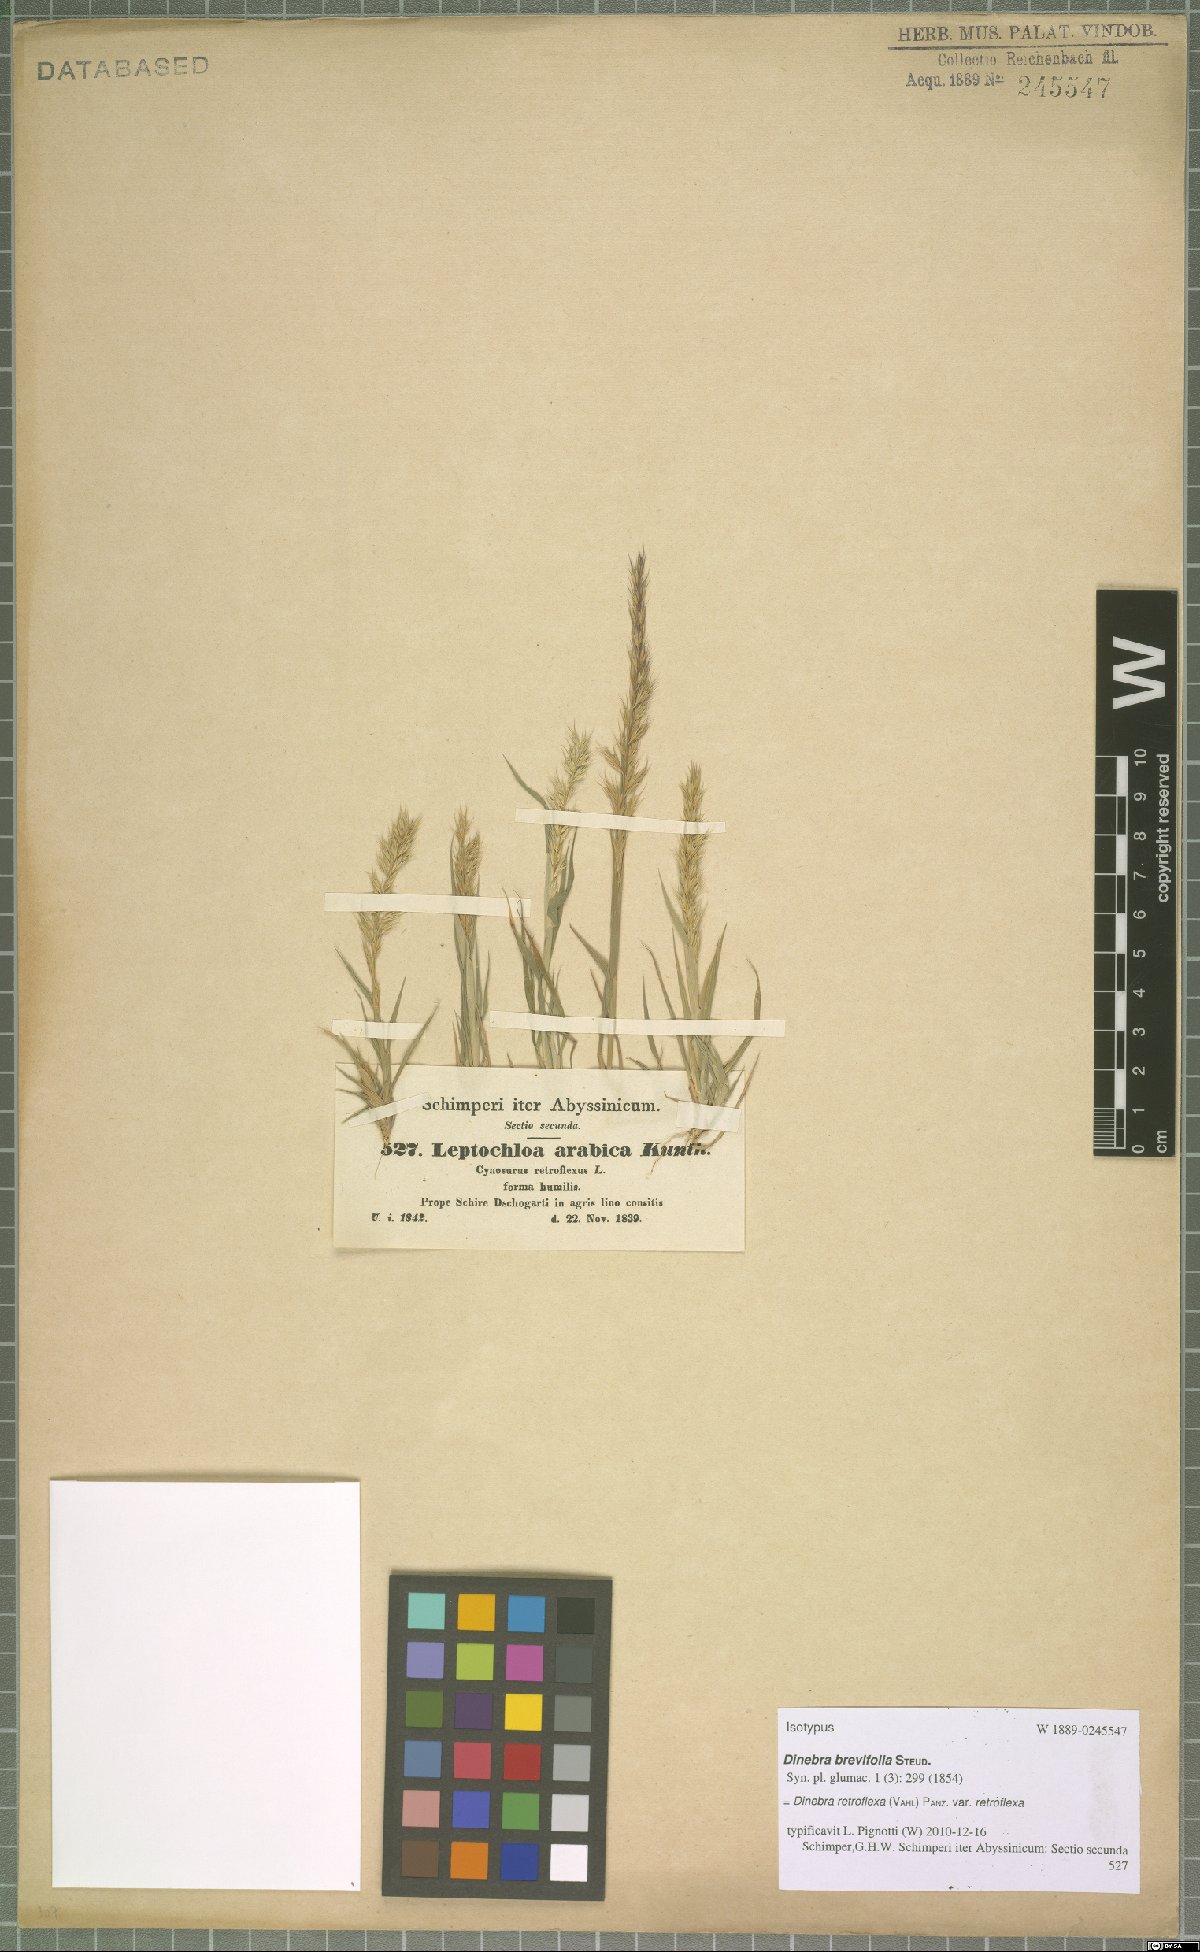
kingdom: Plantae
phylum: Tracheophyta
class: Liliopsida
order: Poales
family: Poaceae
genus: Dinebra
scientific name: Dinebra retroflexa
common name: Viper grass
